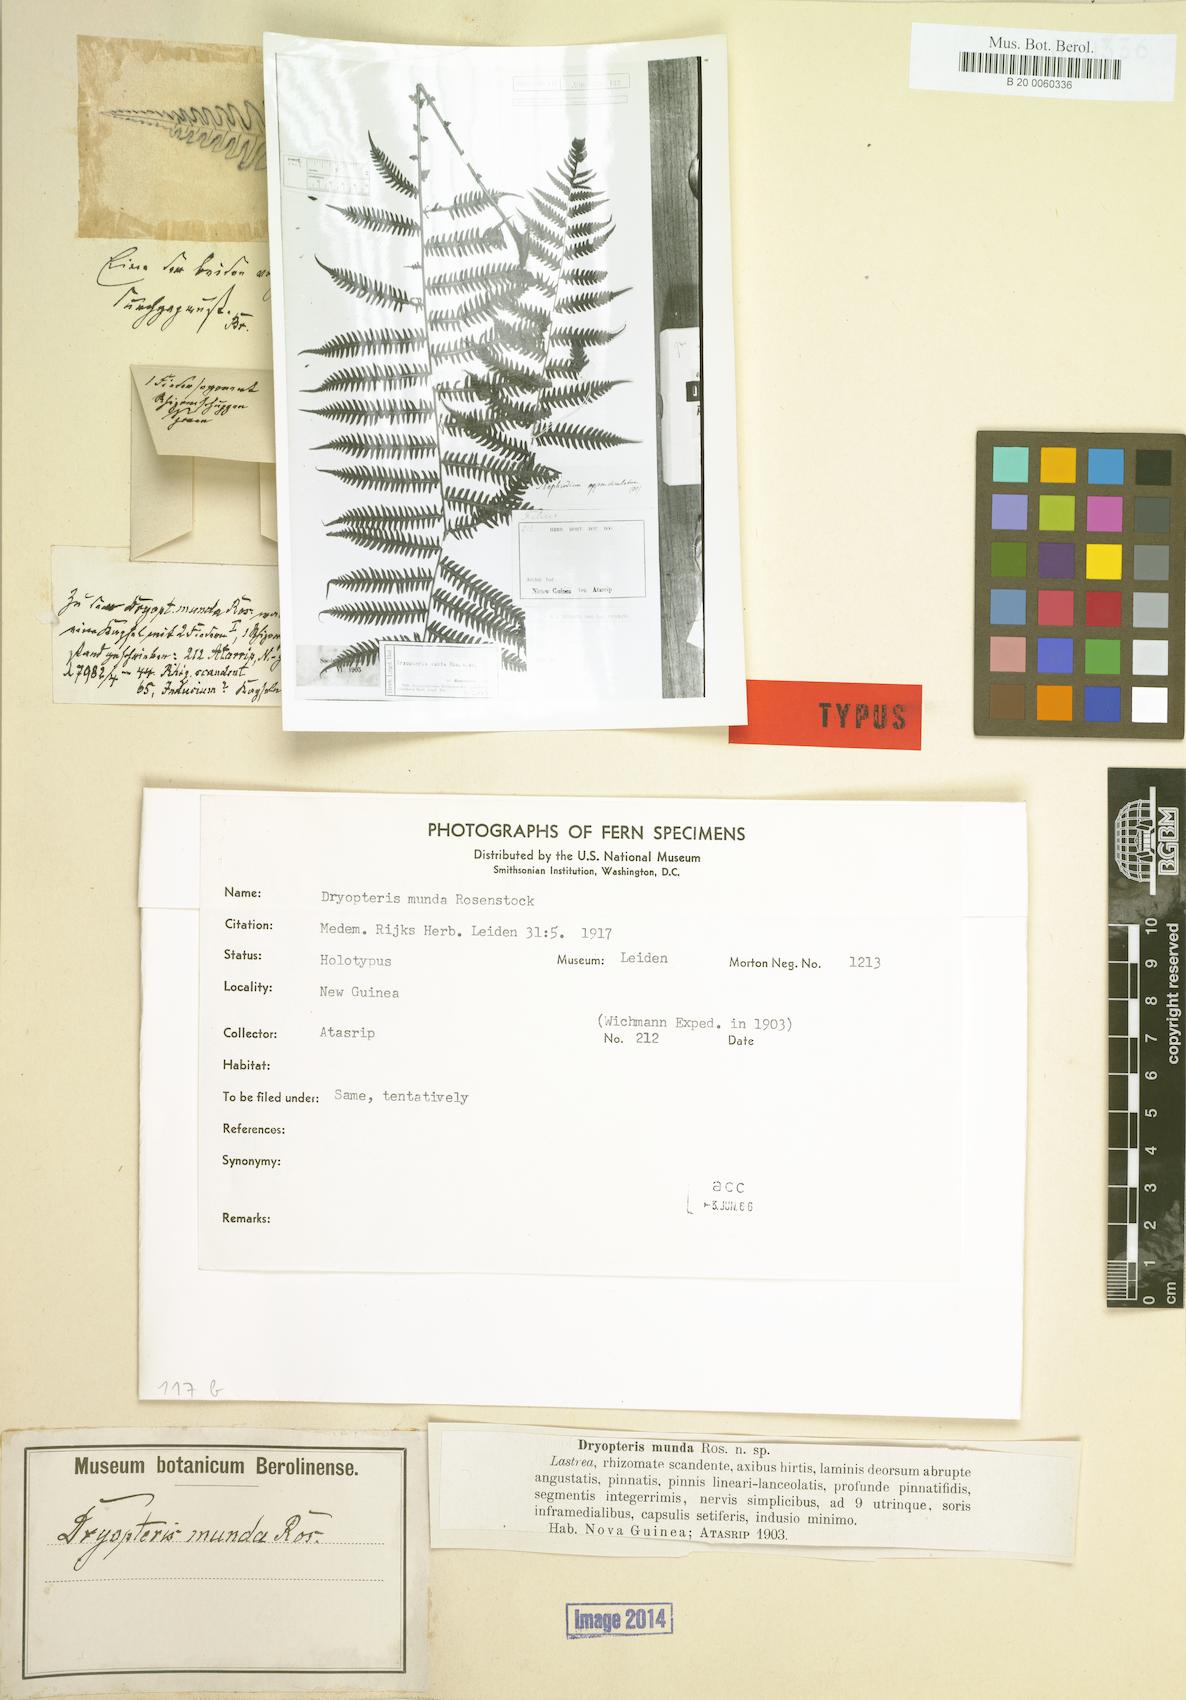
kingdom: Plantae
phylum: Tracheophyta
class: Polypodiopsida
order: Polypodiales
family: Thelypteridaceae
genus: Sphaerostephanos
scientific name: Sphaerostephanos mundus
